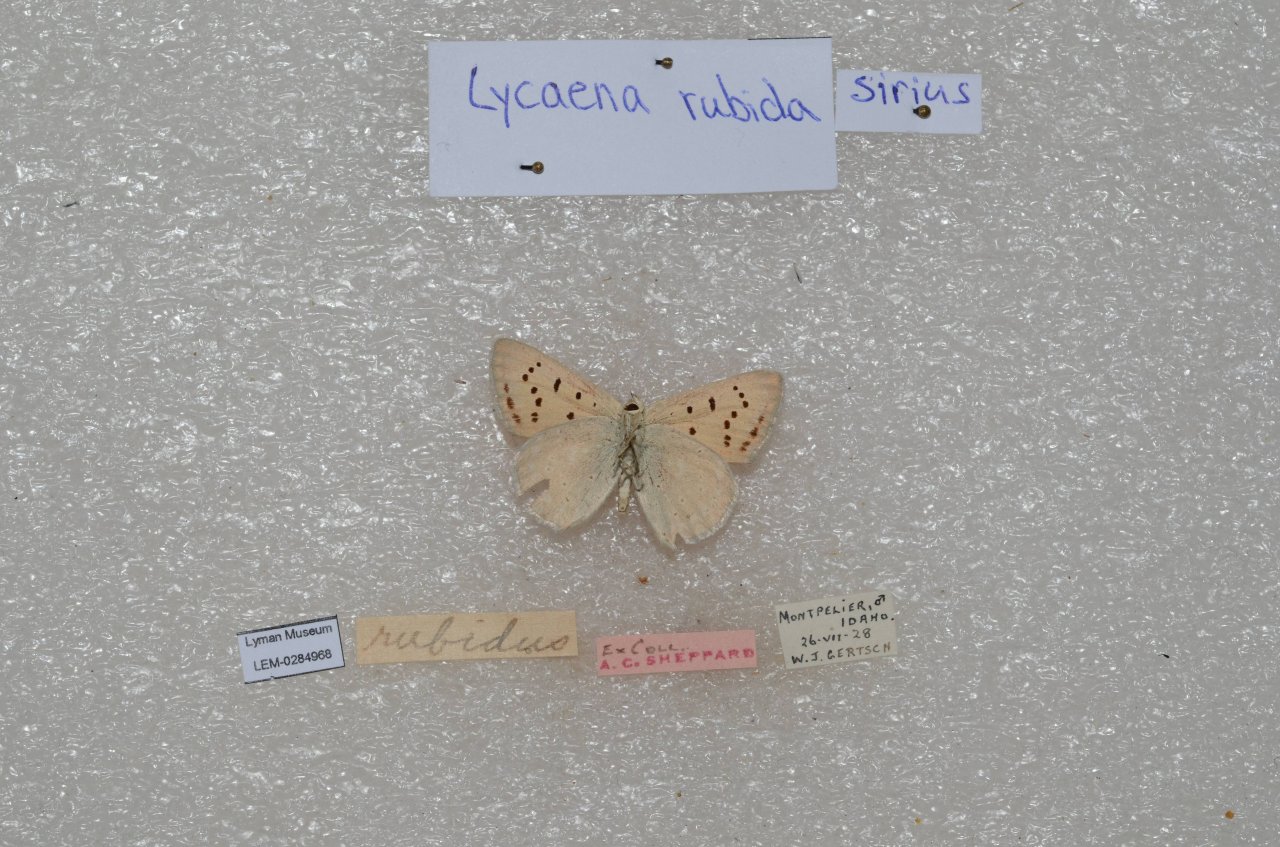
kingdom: Animalia
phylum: Arthropoda
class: Insecta
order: Lepidoptera
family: Sesiidae
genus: Sesia
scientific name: Sesia Lycaena rubidus
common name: Ruddy Copper
